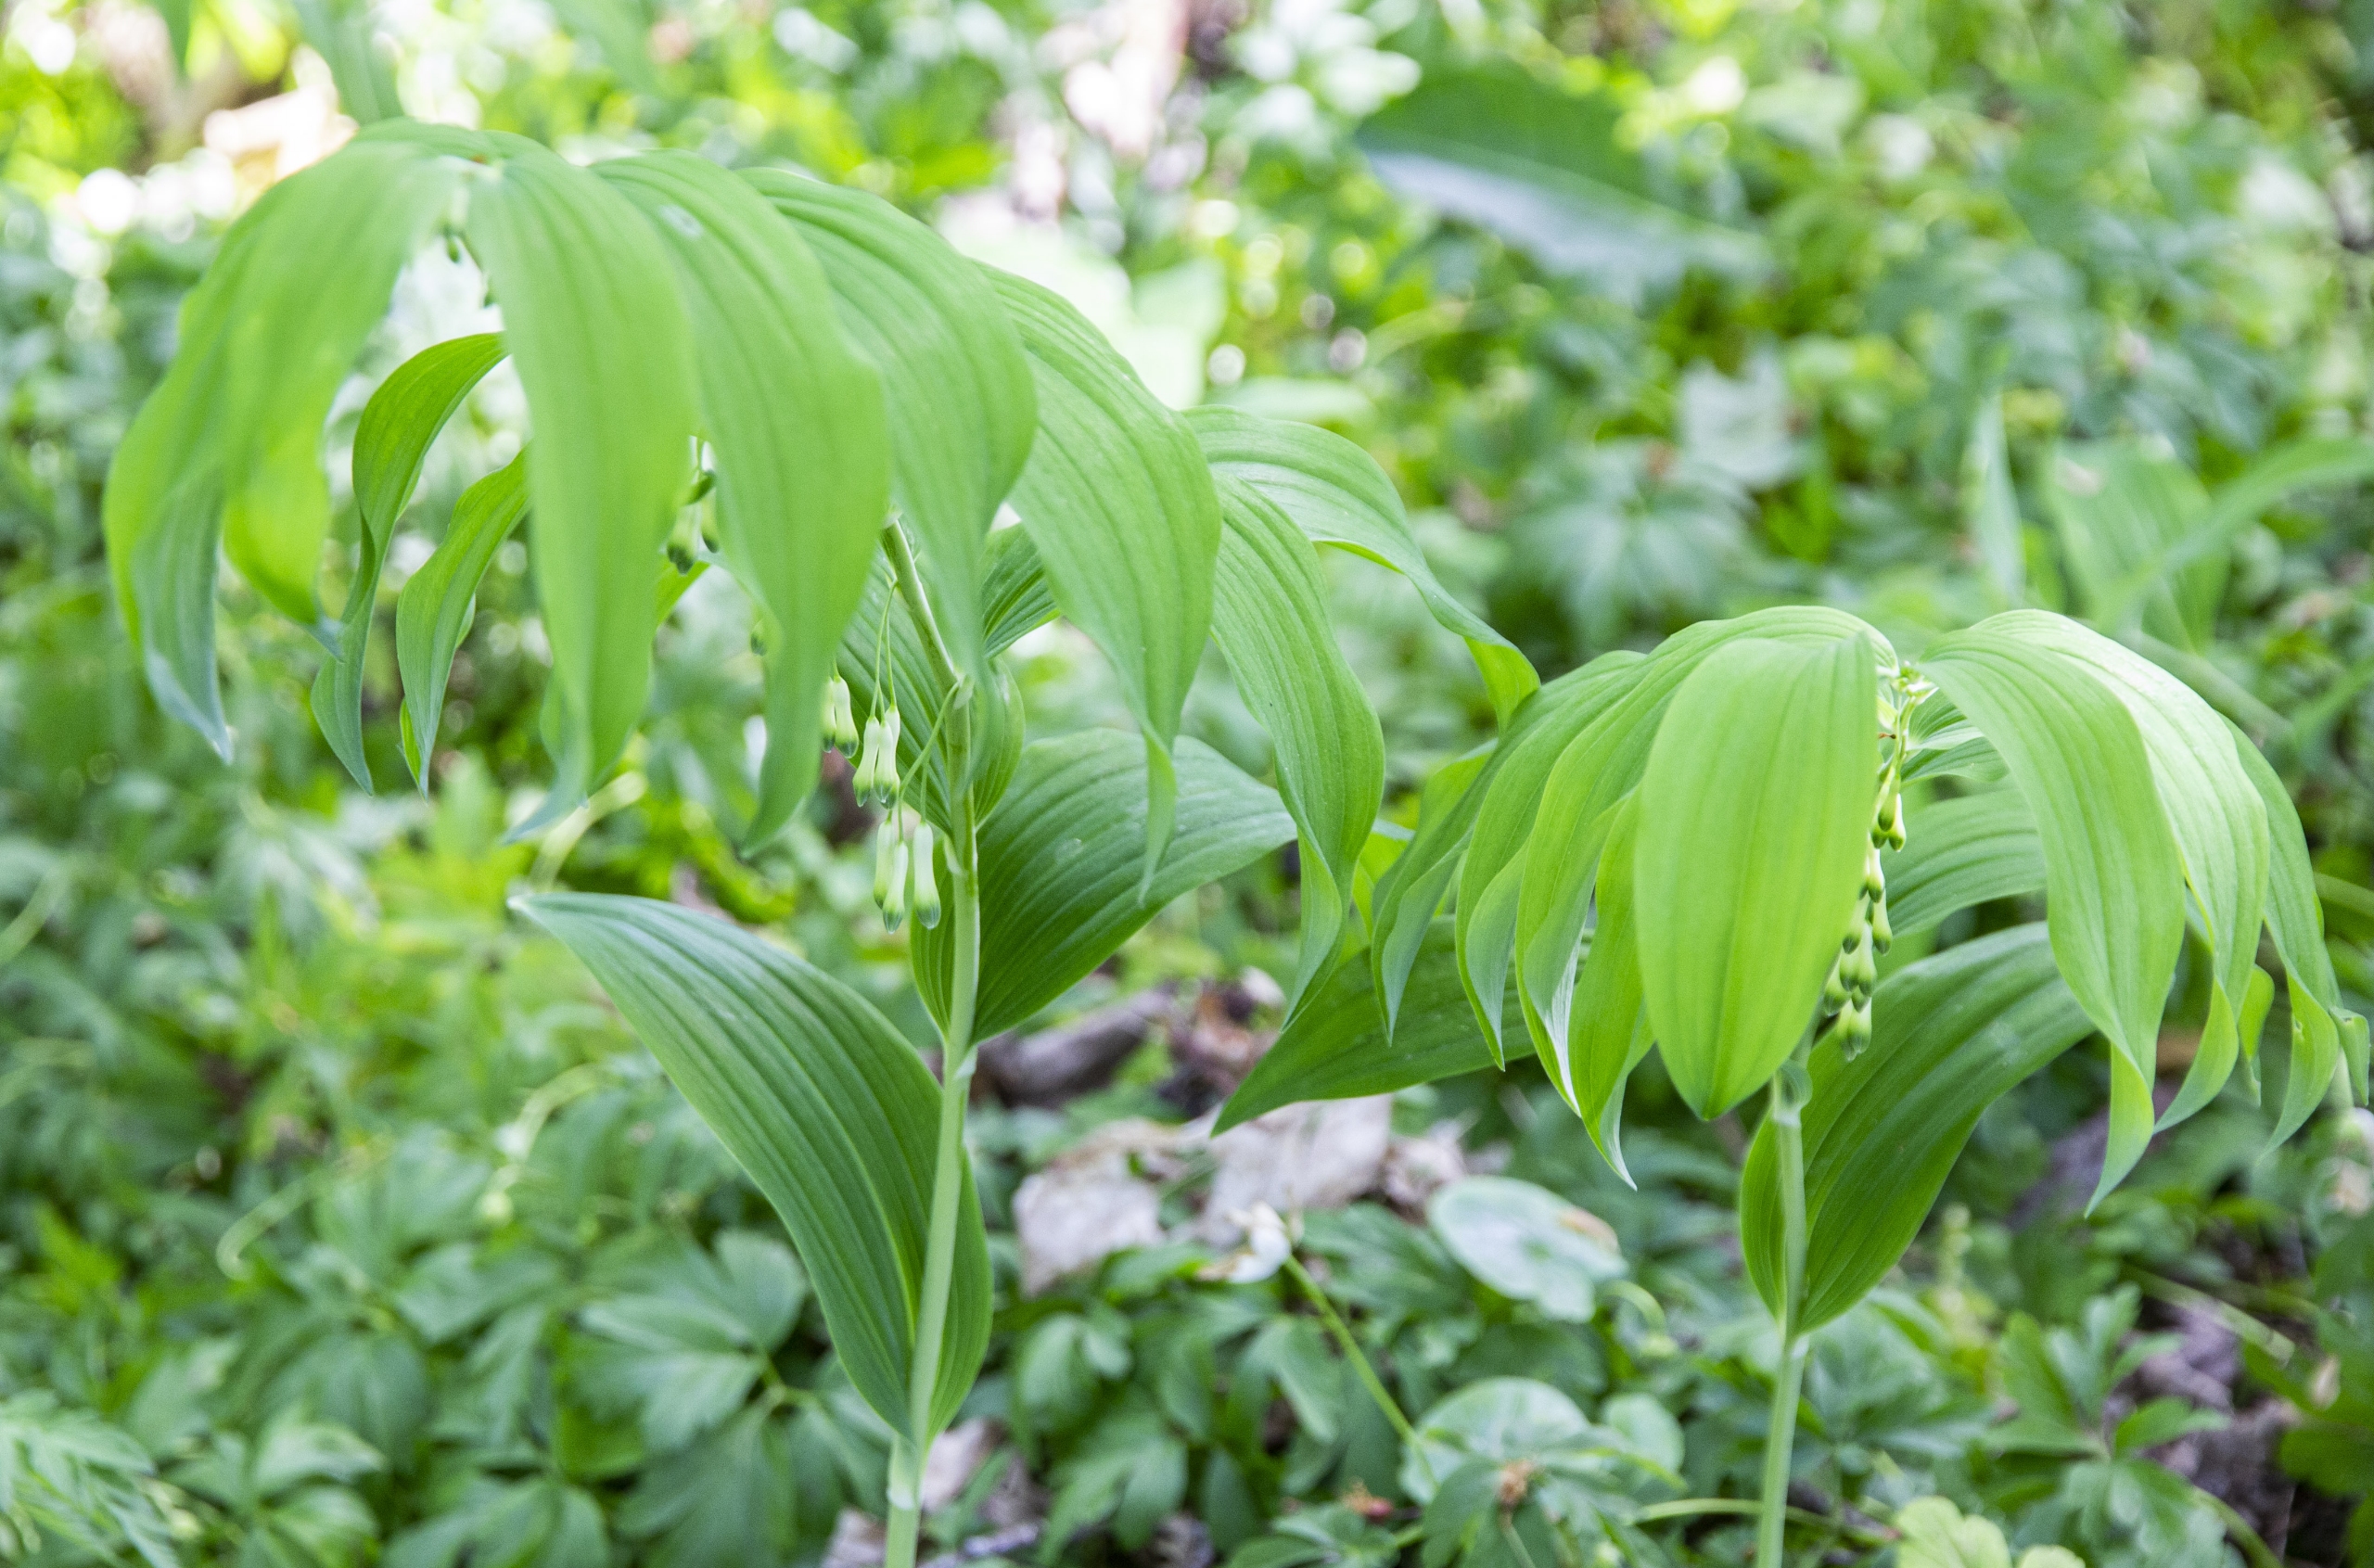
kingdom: Plantae
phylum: Tracheophyta
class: Liliopsida
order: Asparagales
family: Asparagaceae
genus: Polygonatum
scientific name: Polygonatum multiflorum
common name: Stor konval
